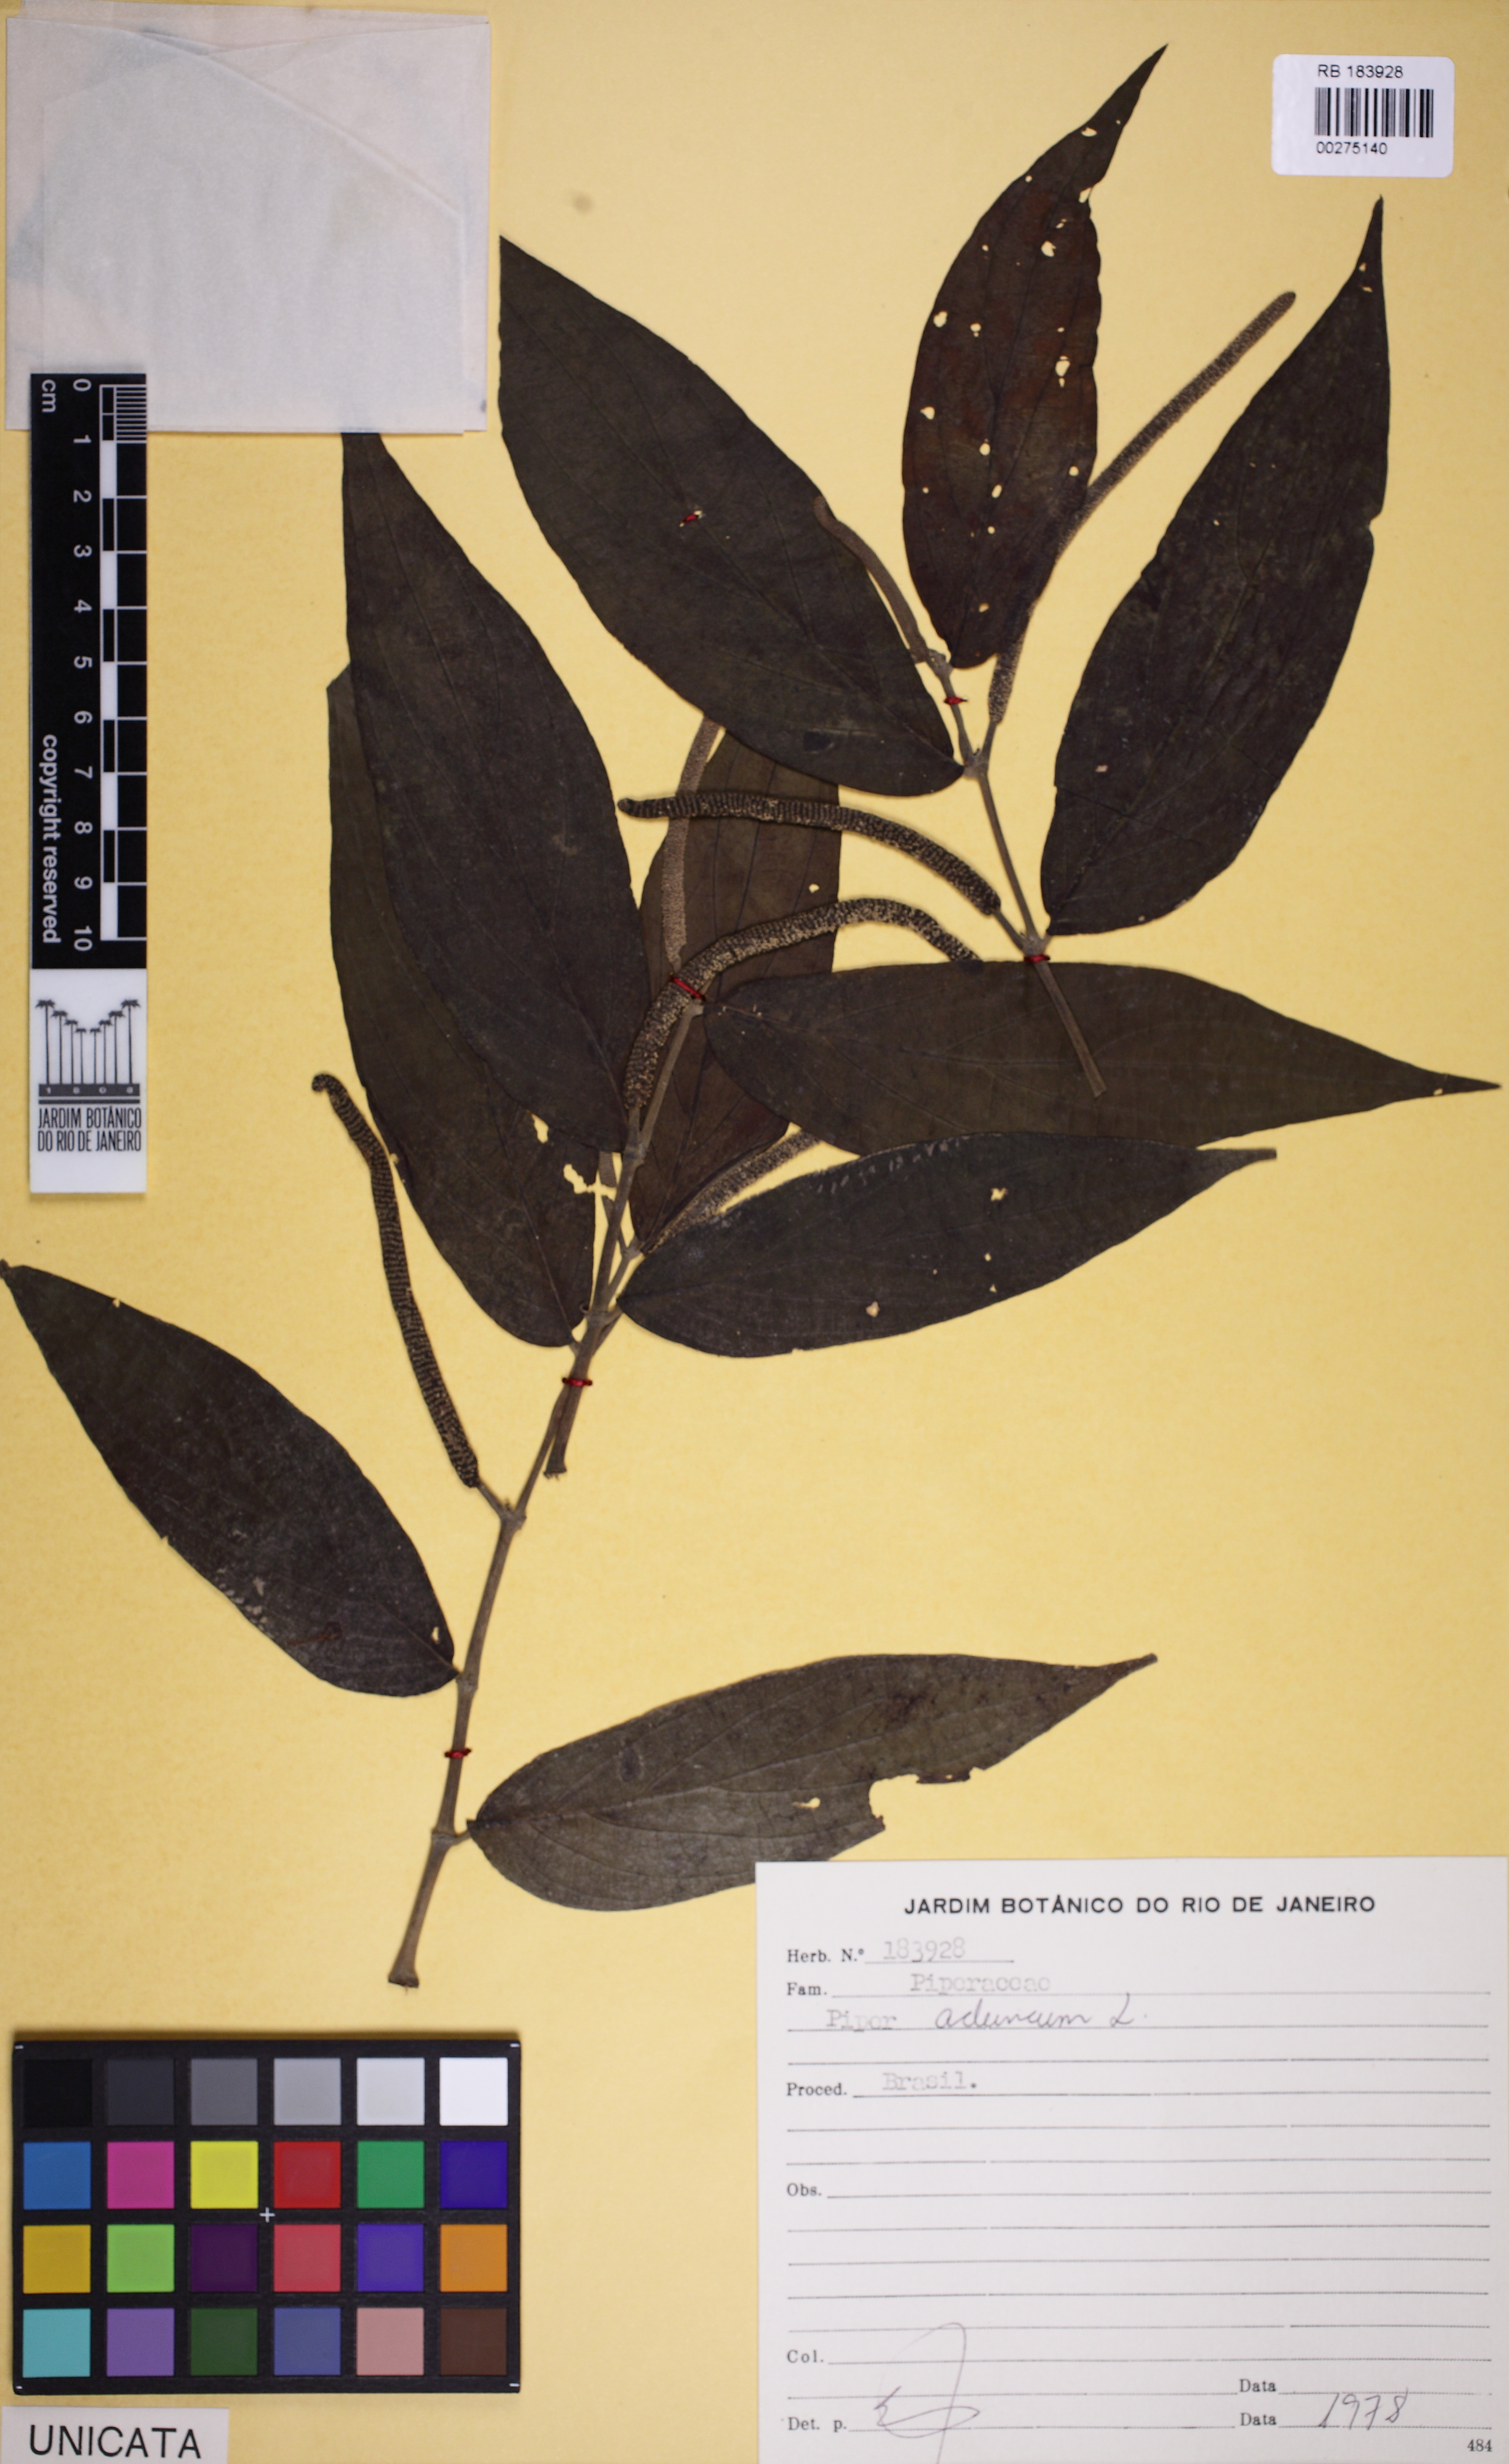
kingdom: Plantae
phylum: Tracheophyta
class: Magnoliopsida
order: Piperales
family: Piperaceae
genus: Piper
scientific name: Piper aduncum
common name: Spiked pepper
